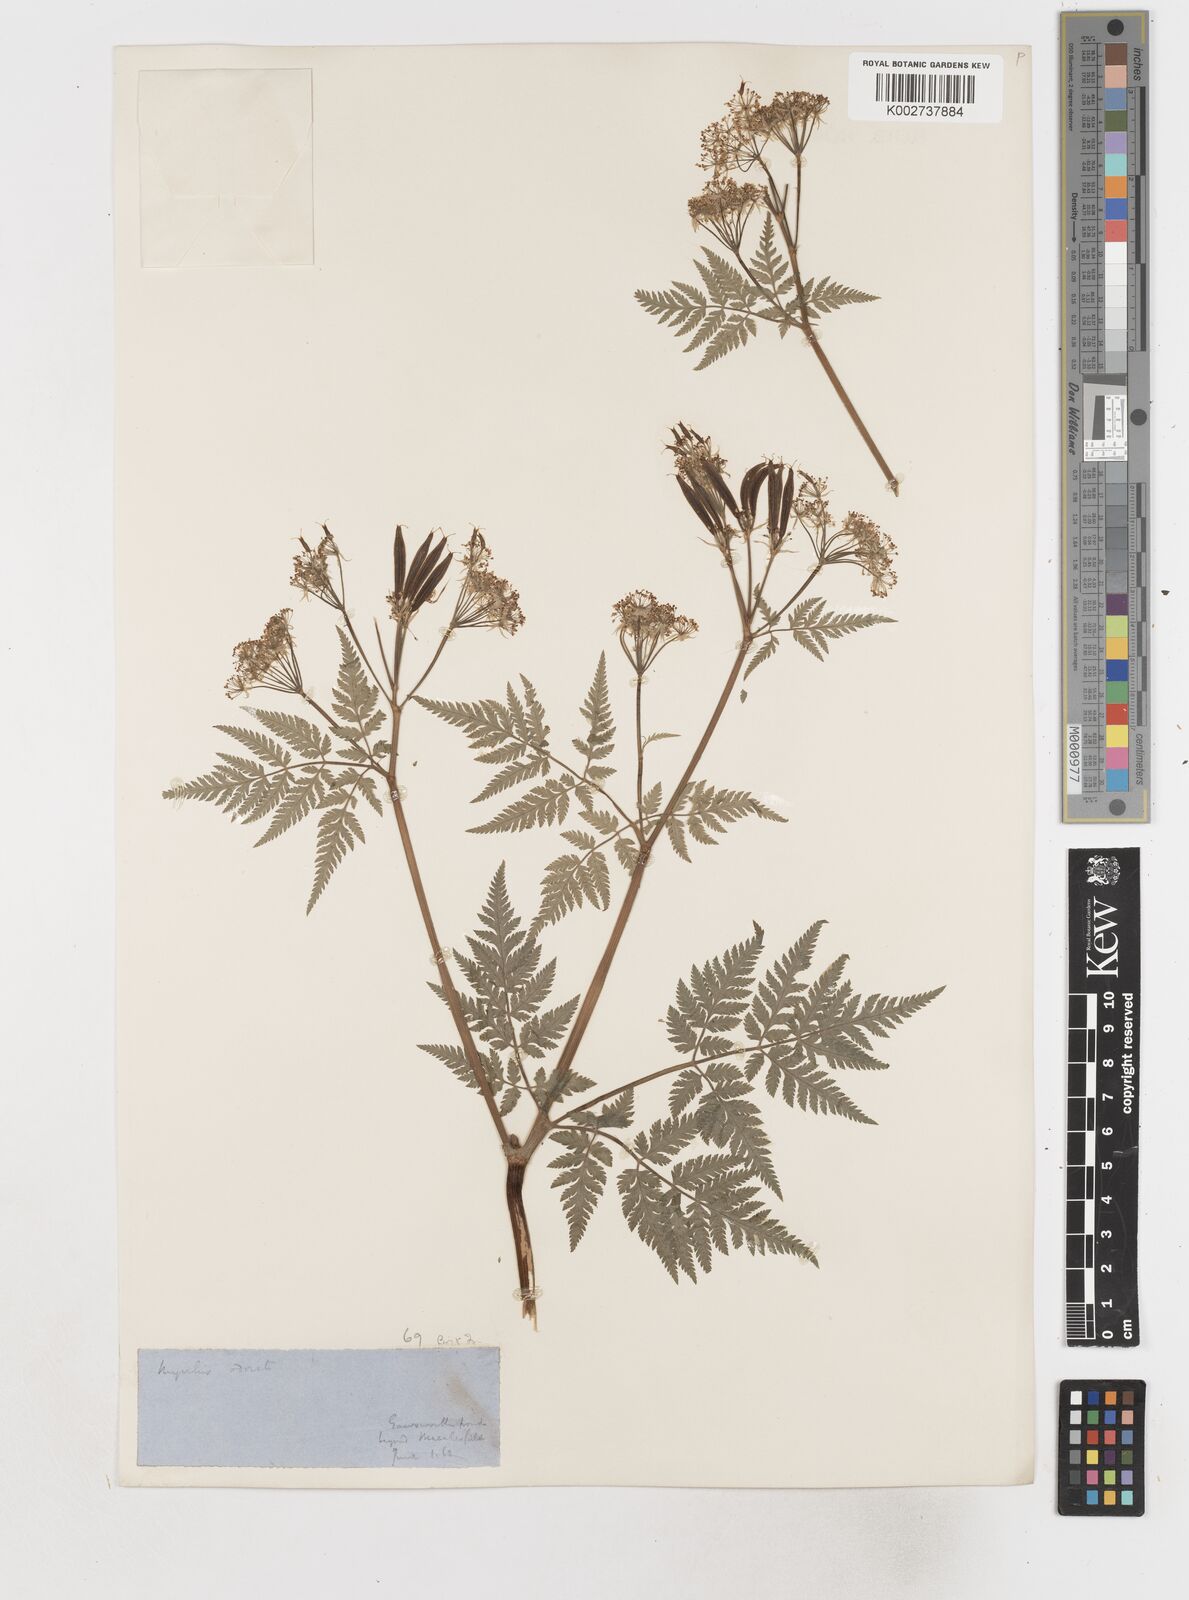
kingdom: Plantae
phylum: Tracheophyta
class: Magnoliopsida
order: Apiales
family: Apiaceae
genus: Myrrhis
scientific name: Myrrhis odorata
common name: Sweet cicely
